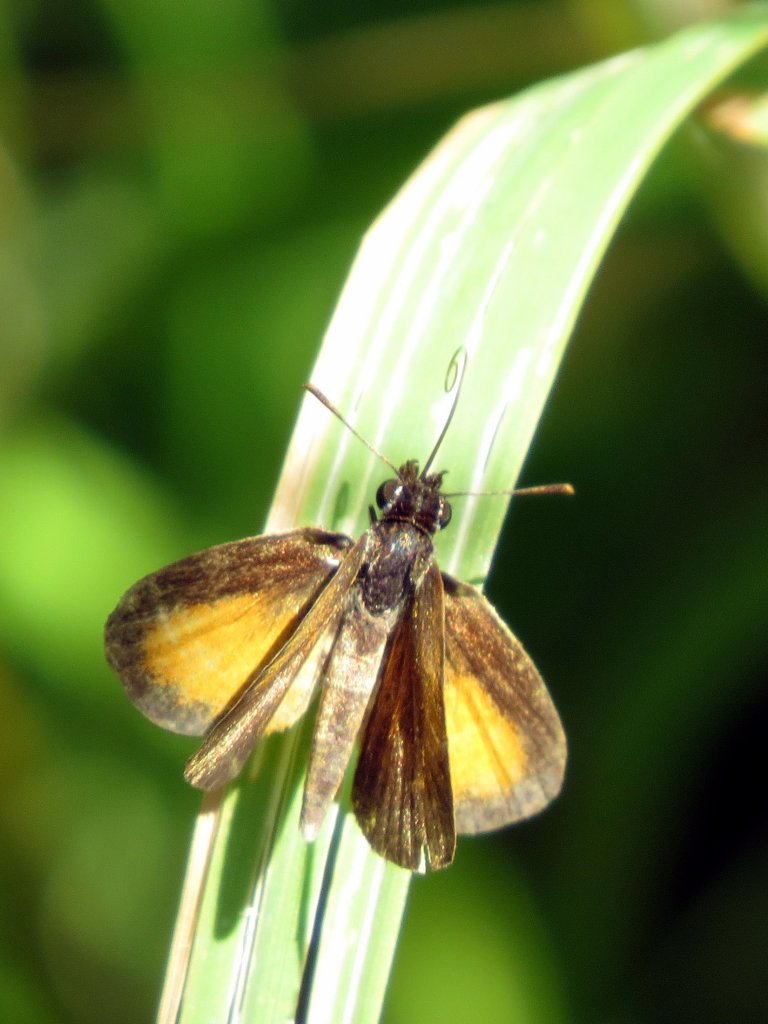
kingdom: Animalia
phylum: Arthropoda
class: Insecta
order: Lepidoptera
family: Hesperiidae
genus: Ancyloxypha
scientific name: Ancyloxypha numitor
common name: Least Skipper
